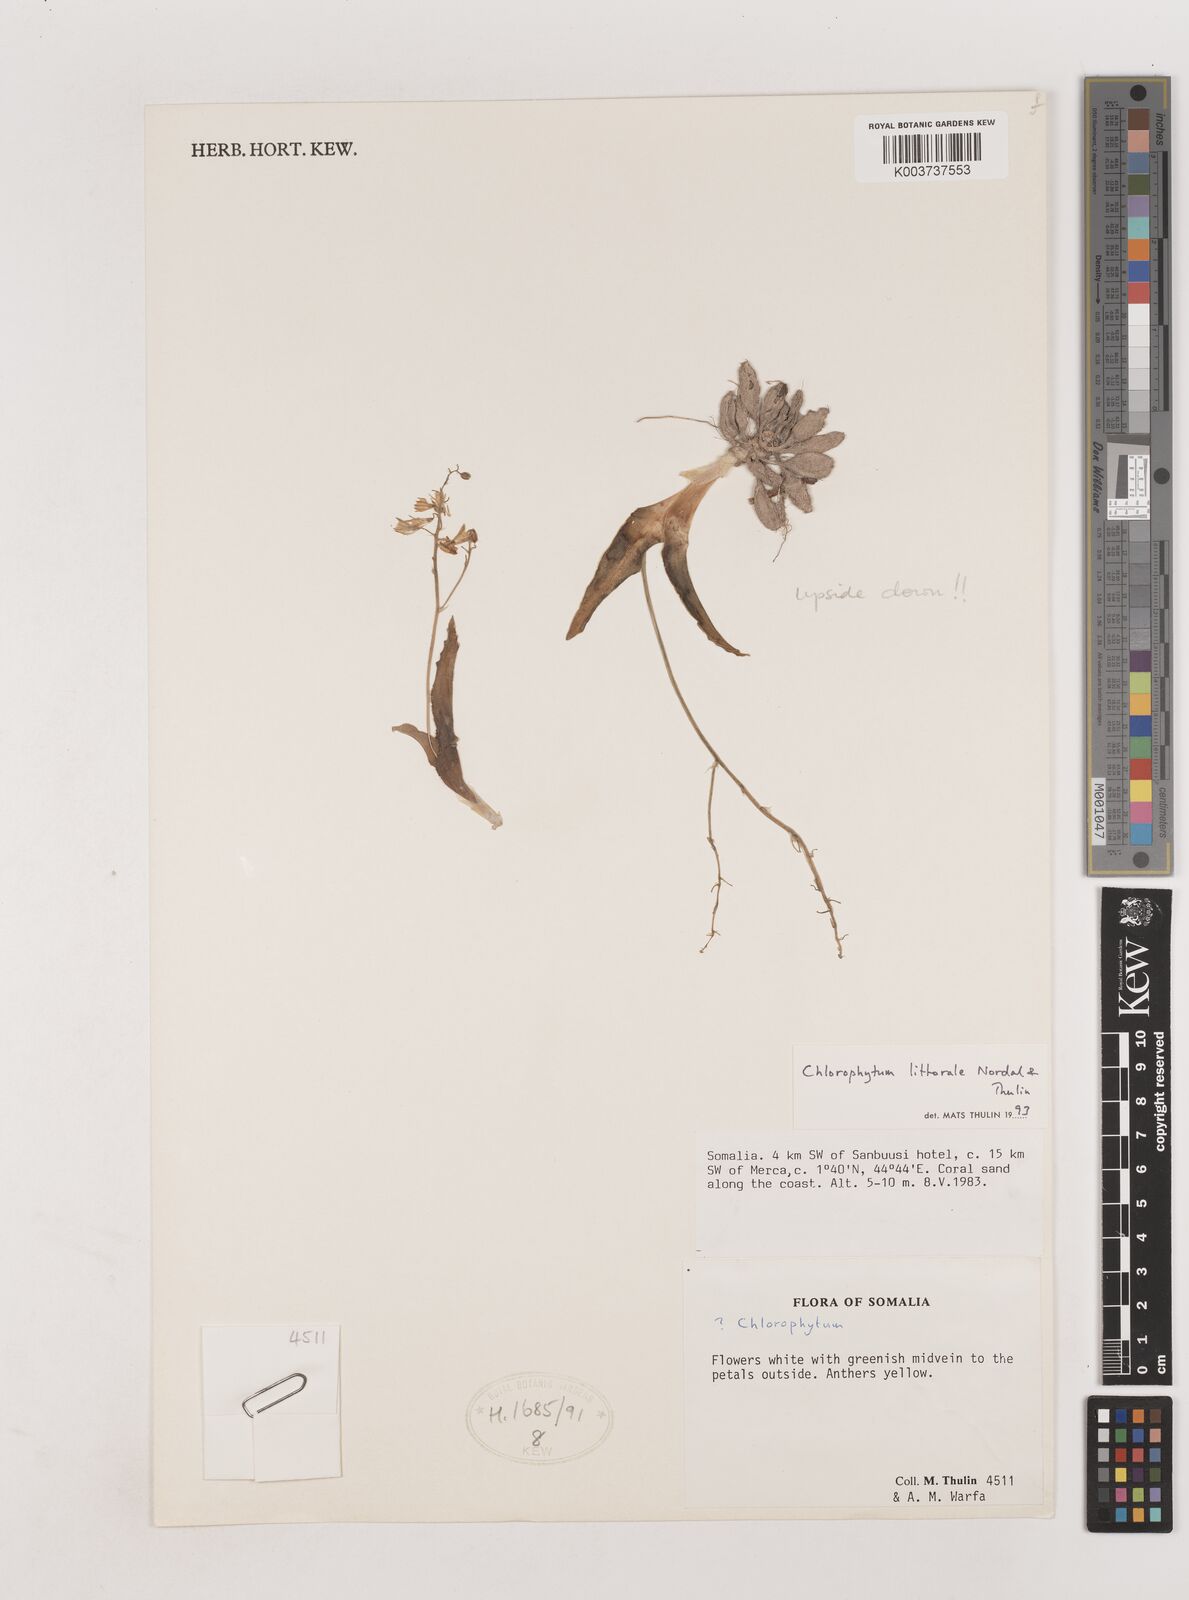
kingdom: Plantae
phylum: Tracheophyta
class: Liliopsida
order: Asparagales
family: Asparagaceae
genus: Chlorophytum
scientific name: Chlorophytum littorale
